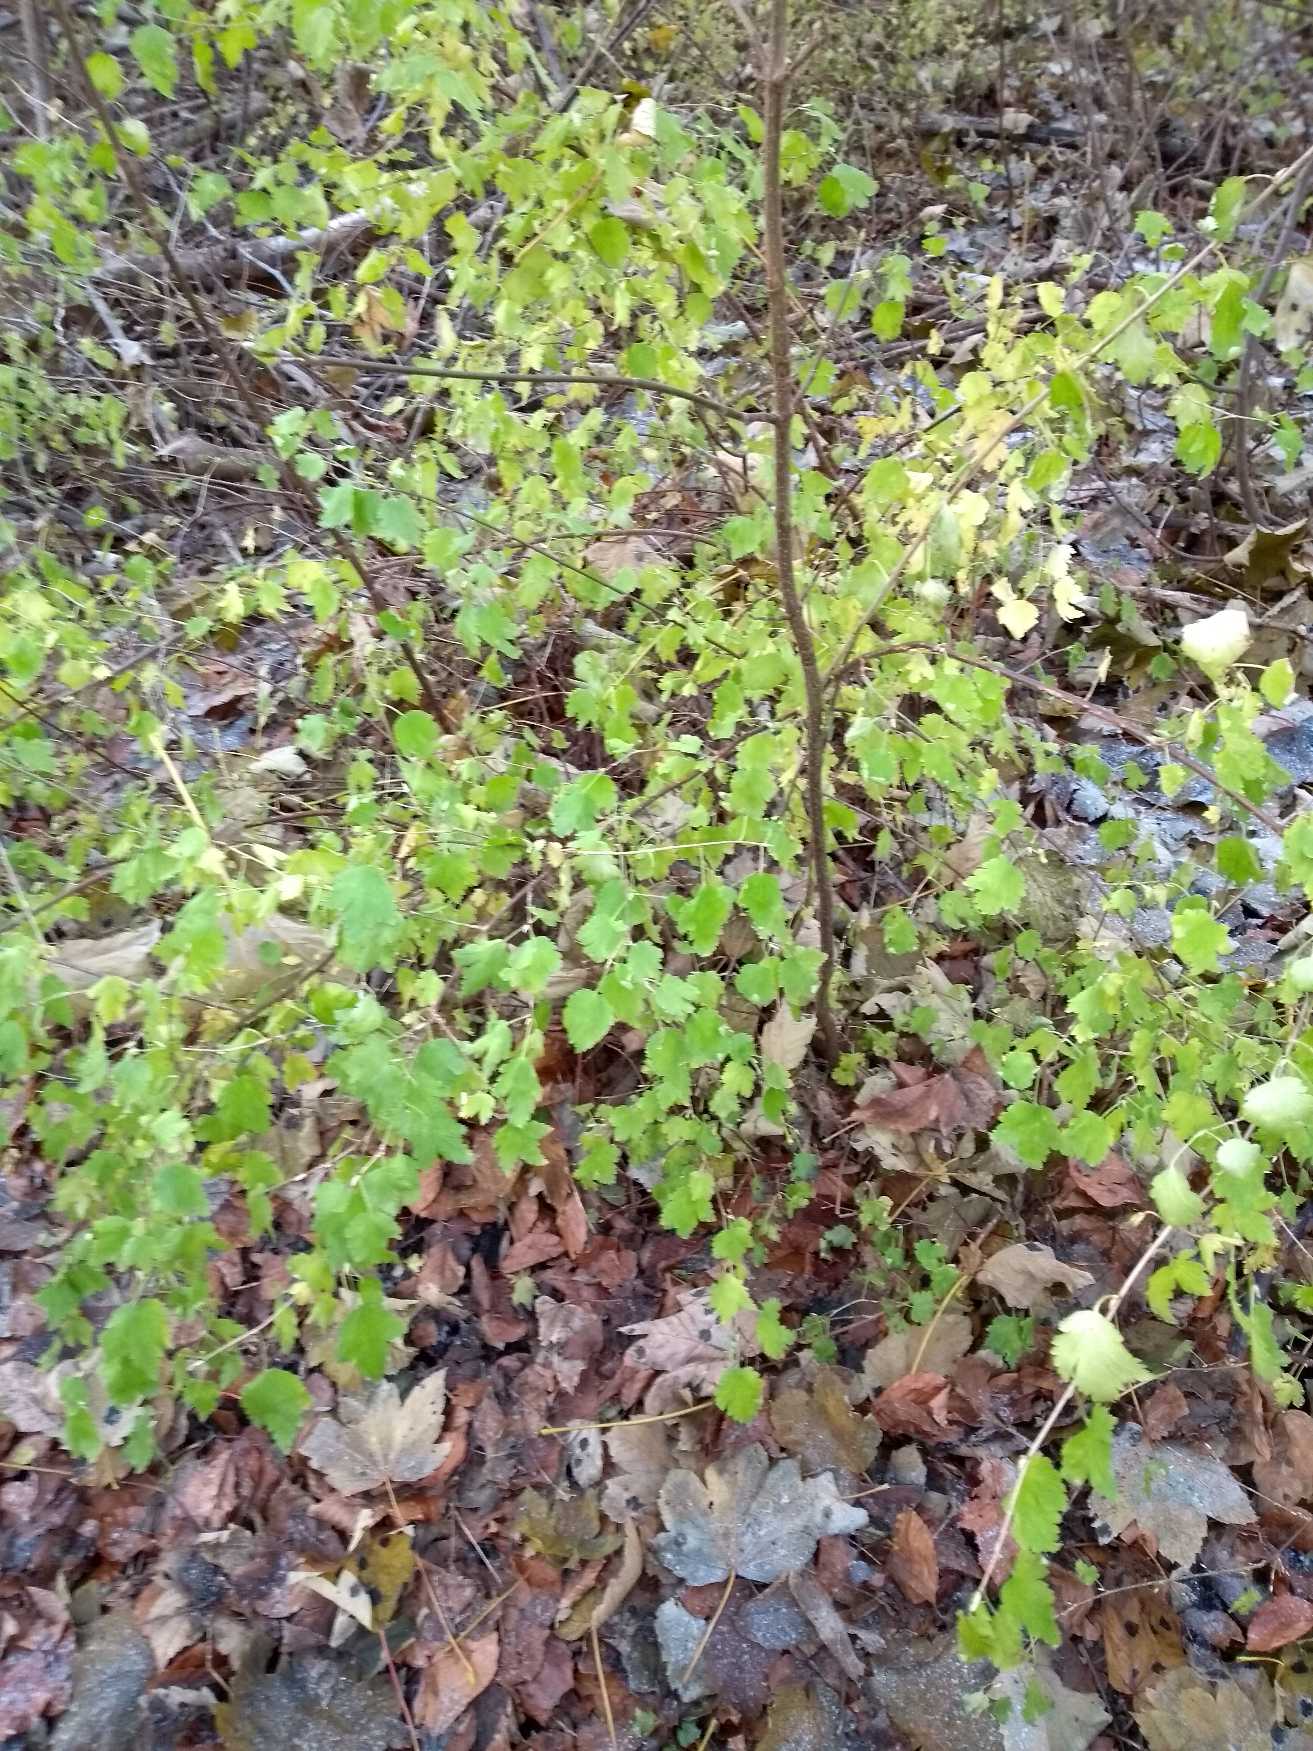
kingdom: Plantae
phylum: Tracheophyta
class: Magnoliopsida
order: Saxifragales
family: Grossulariaceae
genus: Ribes
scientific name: Ribes alpinum
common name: Fjeld-ribs
